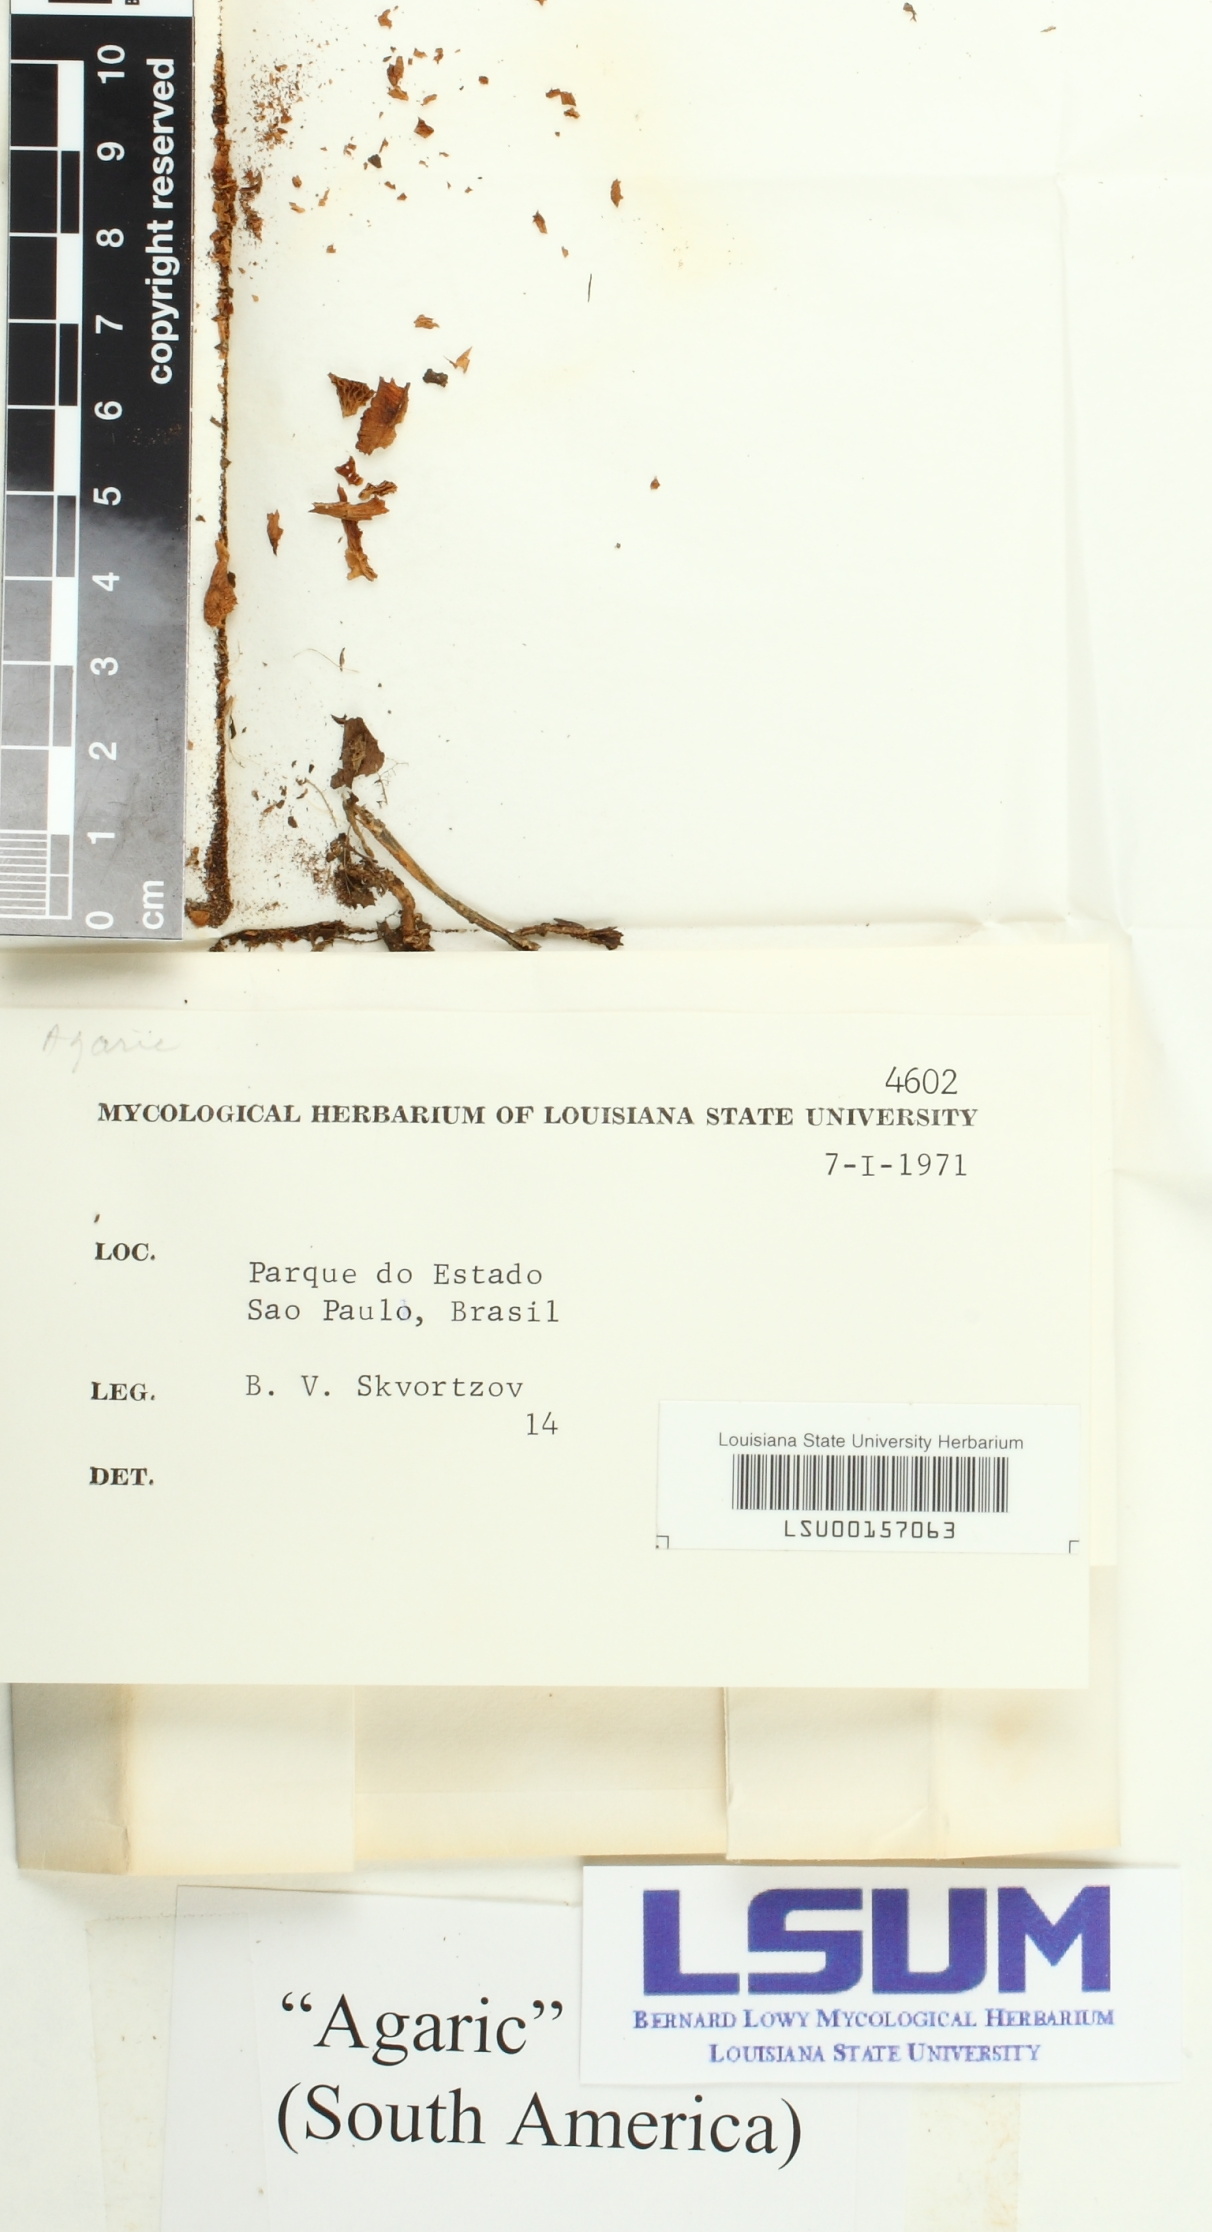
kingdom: Fungi
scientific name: Fungi
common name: Fungi
